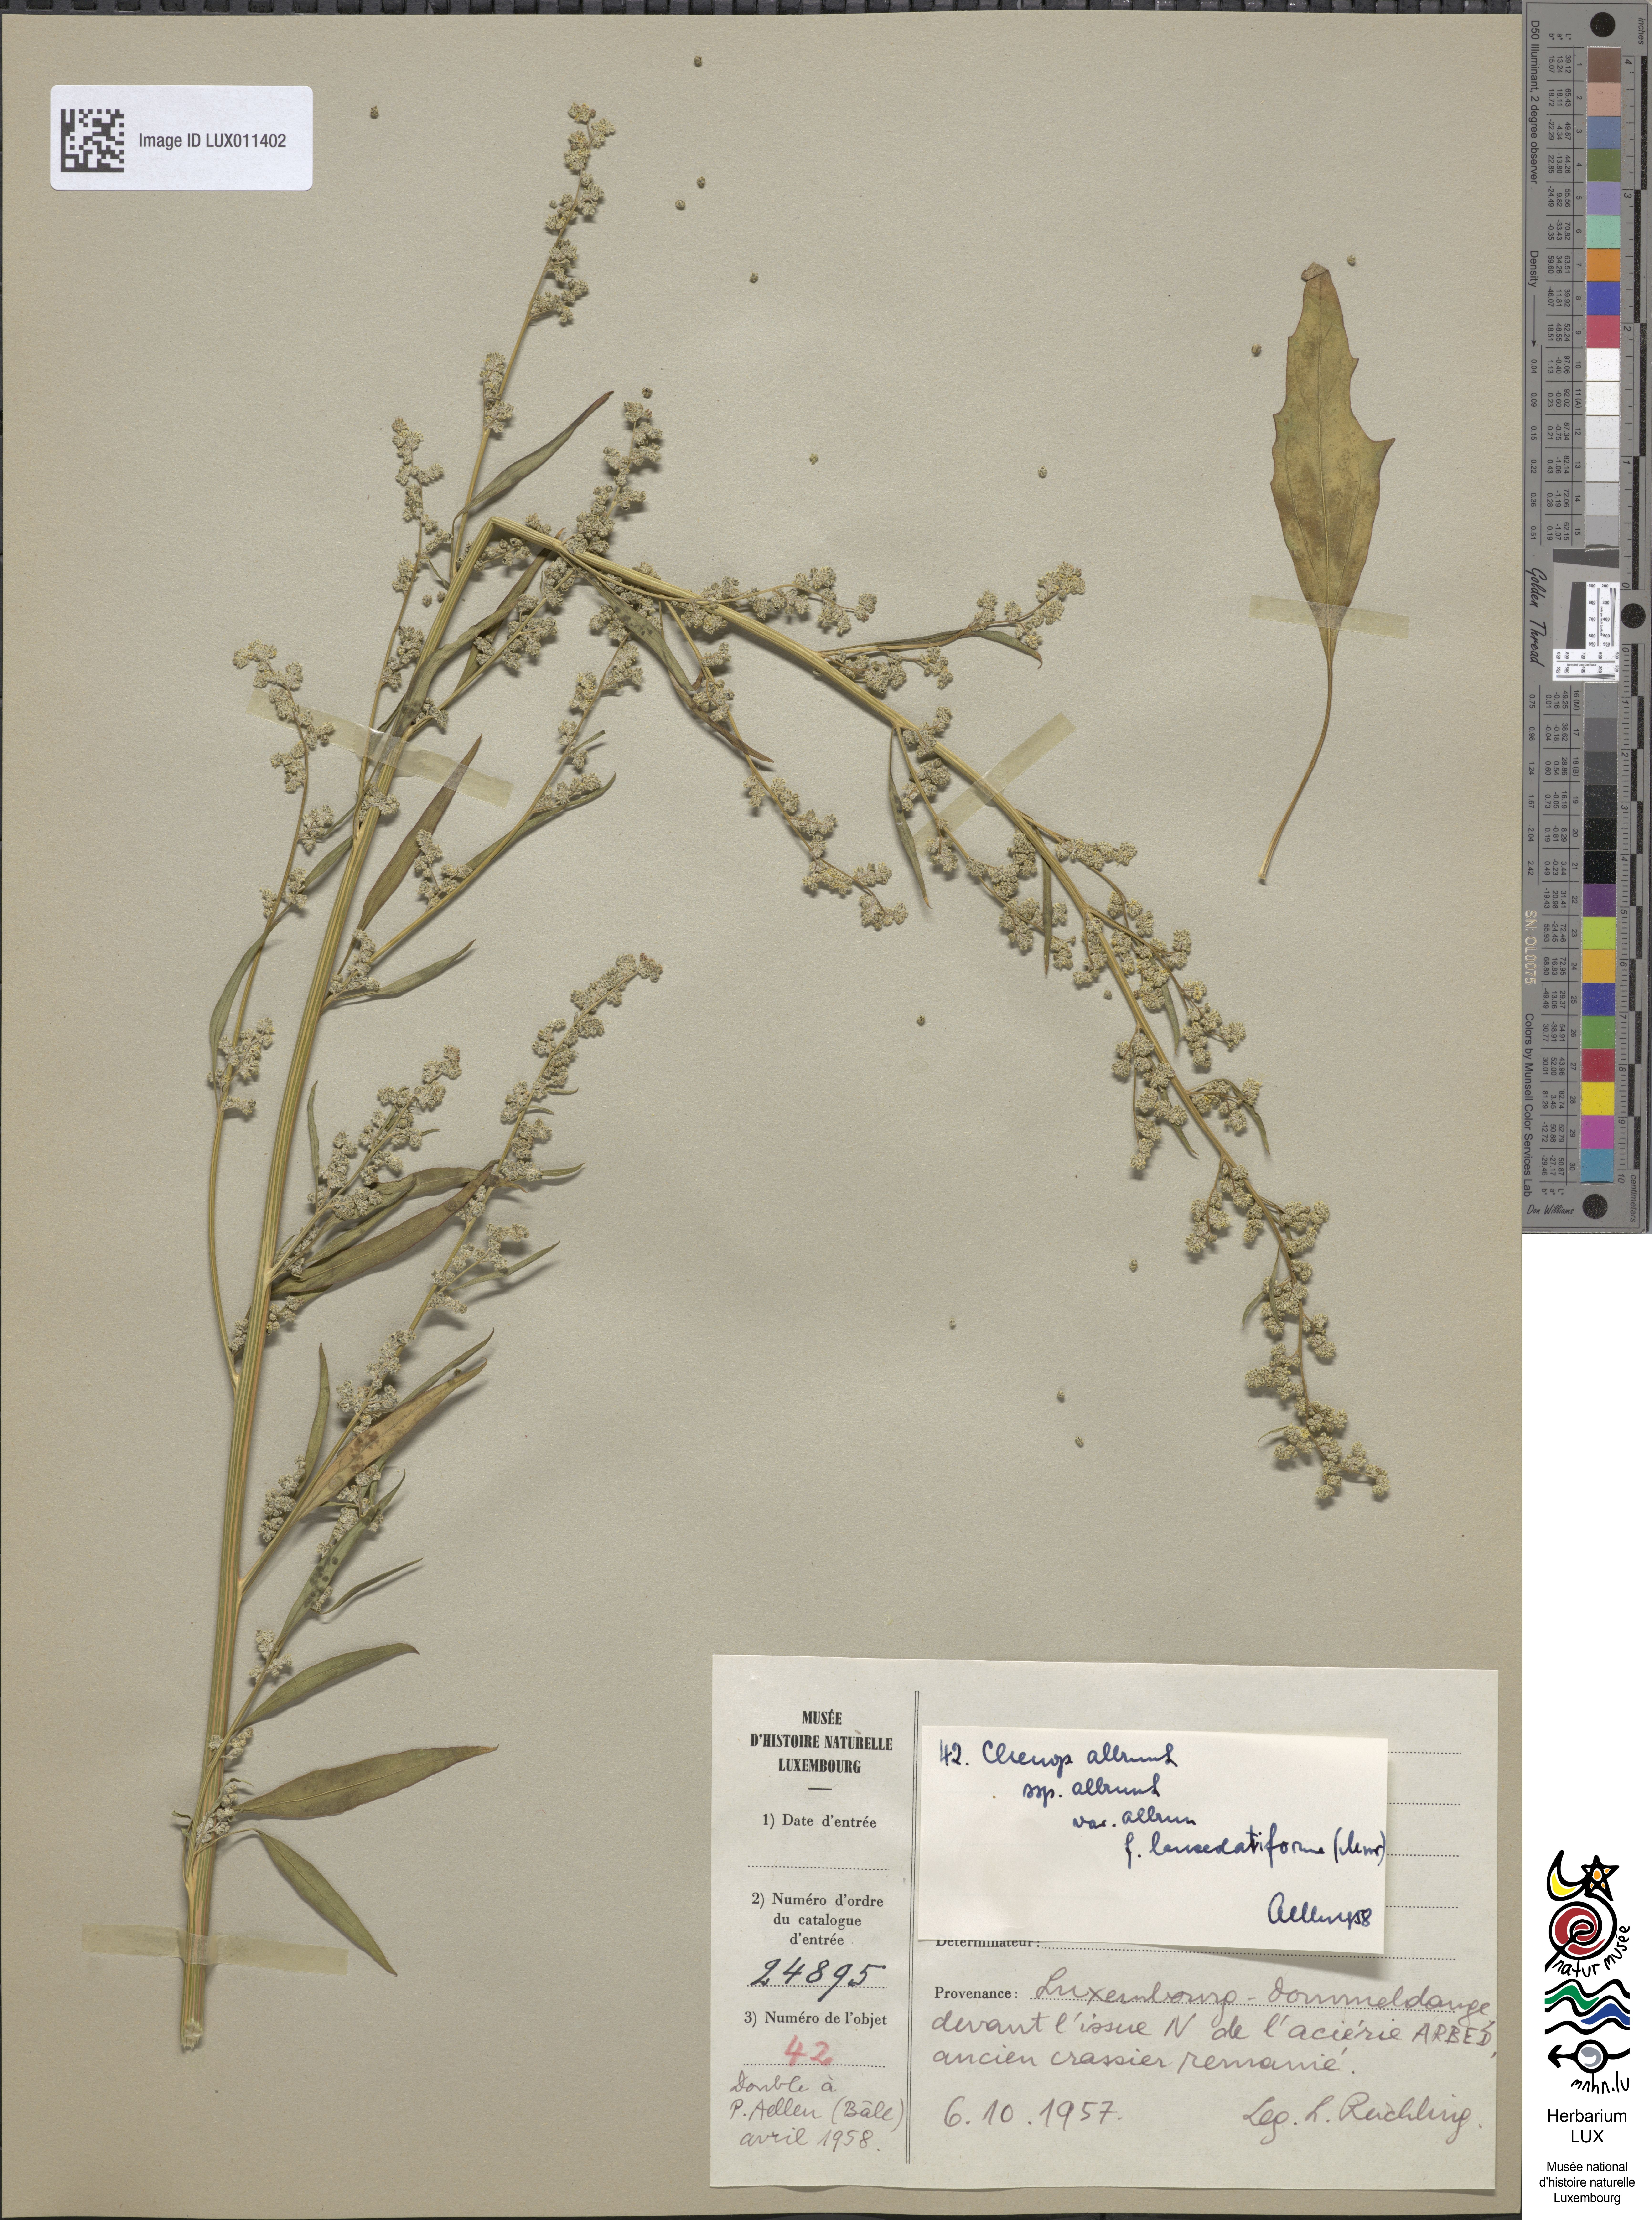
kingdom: Plantae
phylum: Tracheophyta
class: Magnoliopsida
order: Caryophyllales
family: Amaranthaceae
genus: Chenopodium
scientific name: Chenopodium album
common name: Fat-hen
